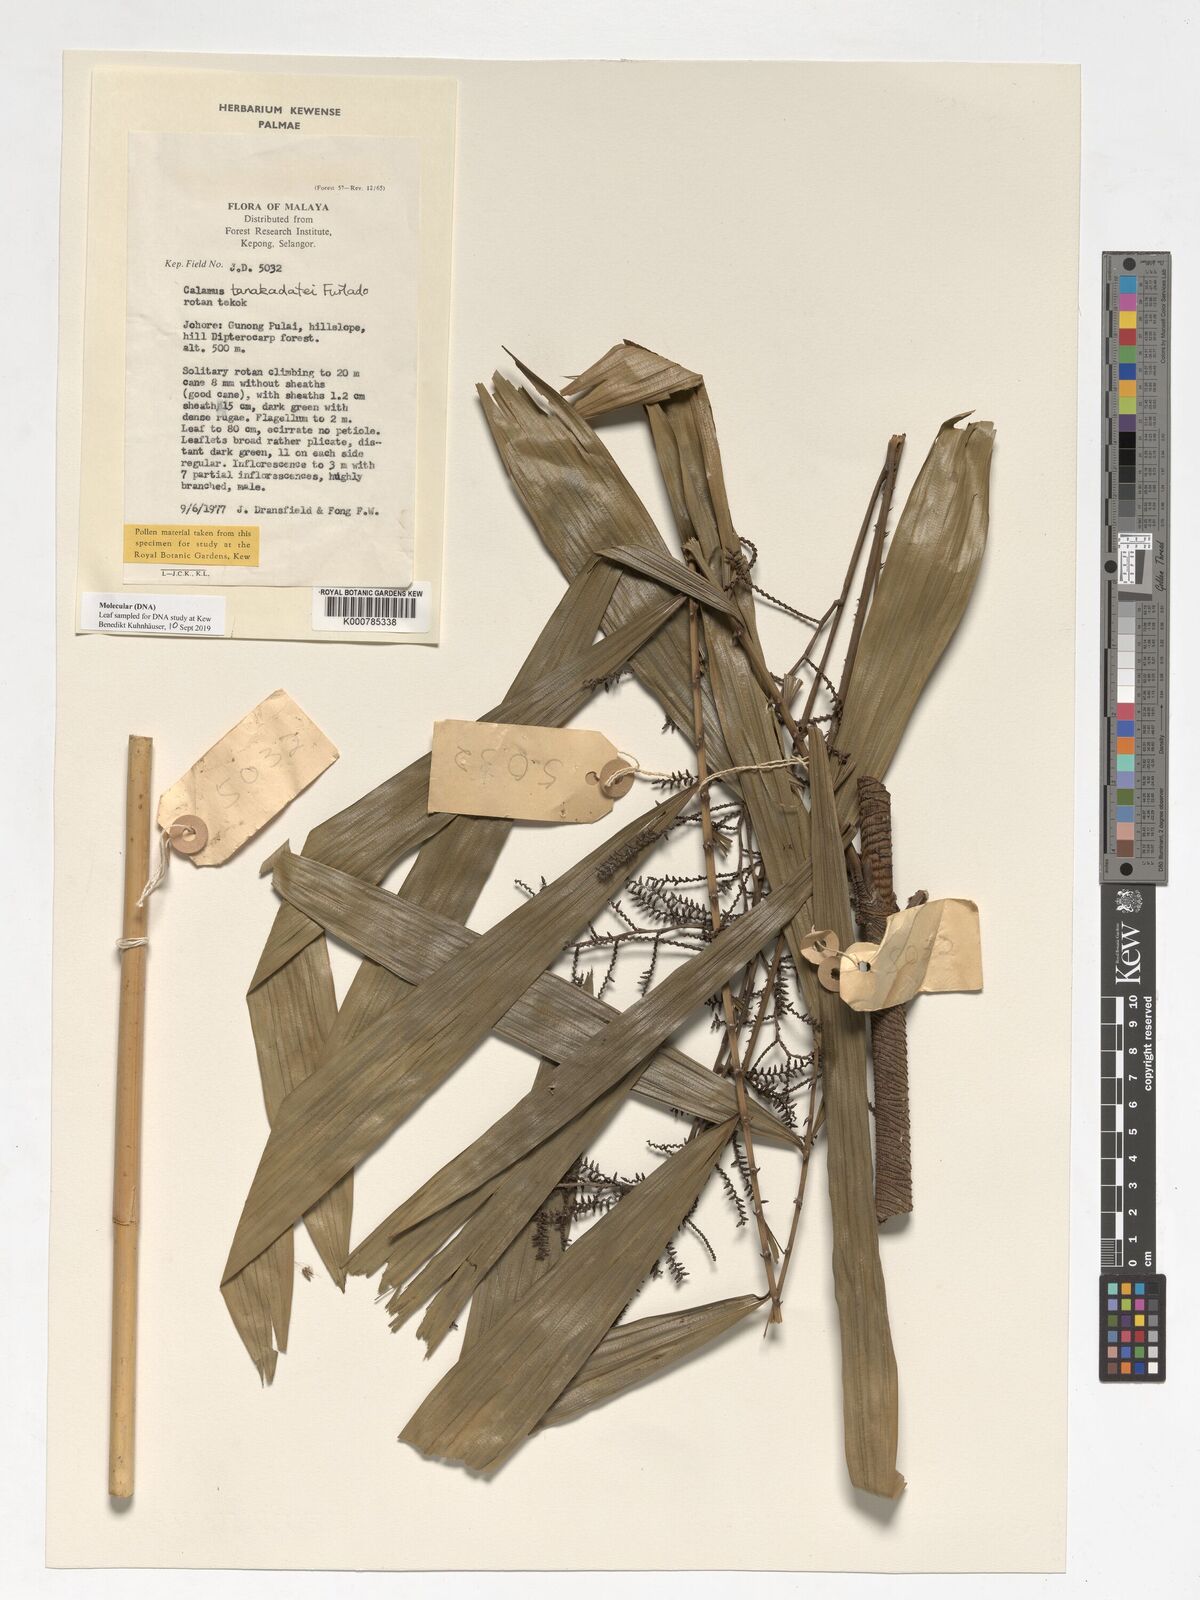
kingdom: Plantae
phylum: Tracheophyta
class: Liliopsida
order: Arecales
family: Arecaceae
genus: Calamus
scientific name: Calamus ruvidus
